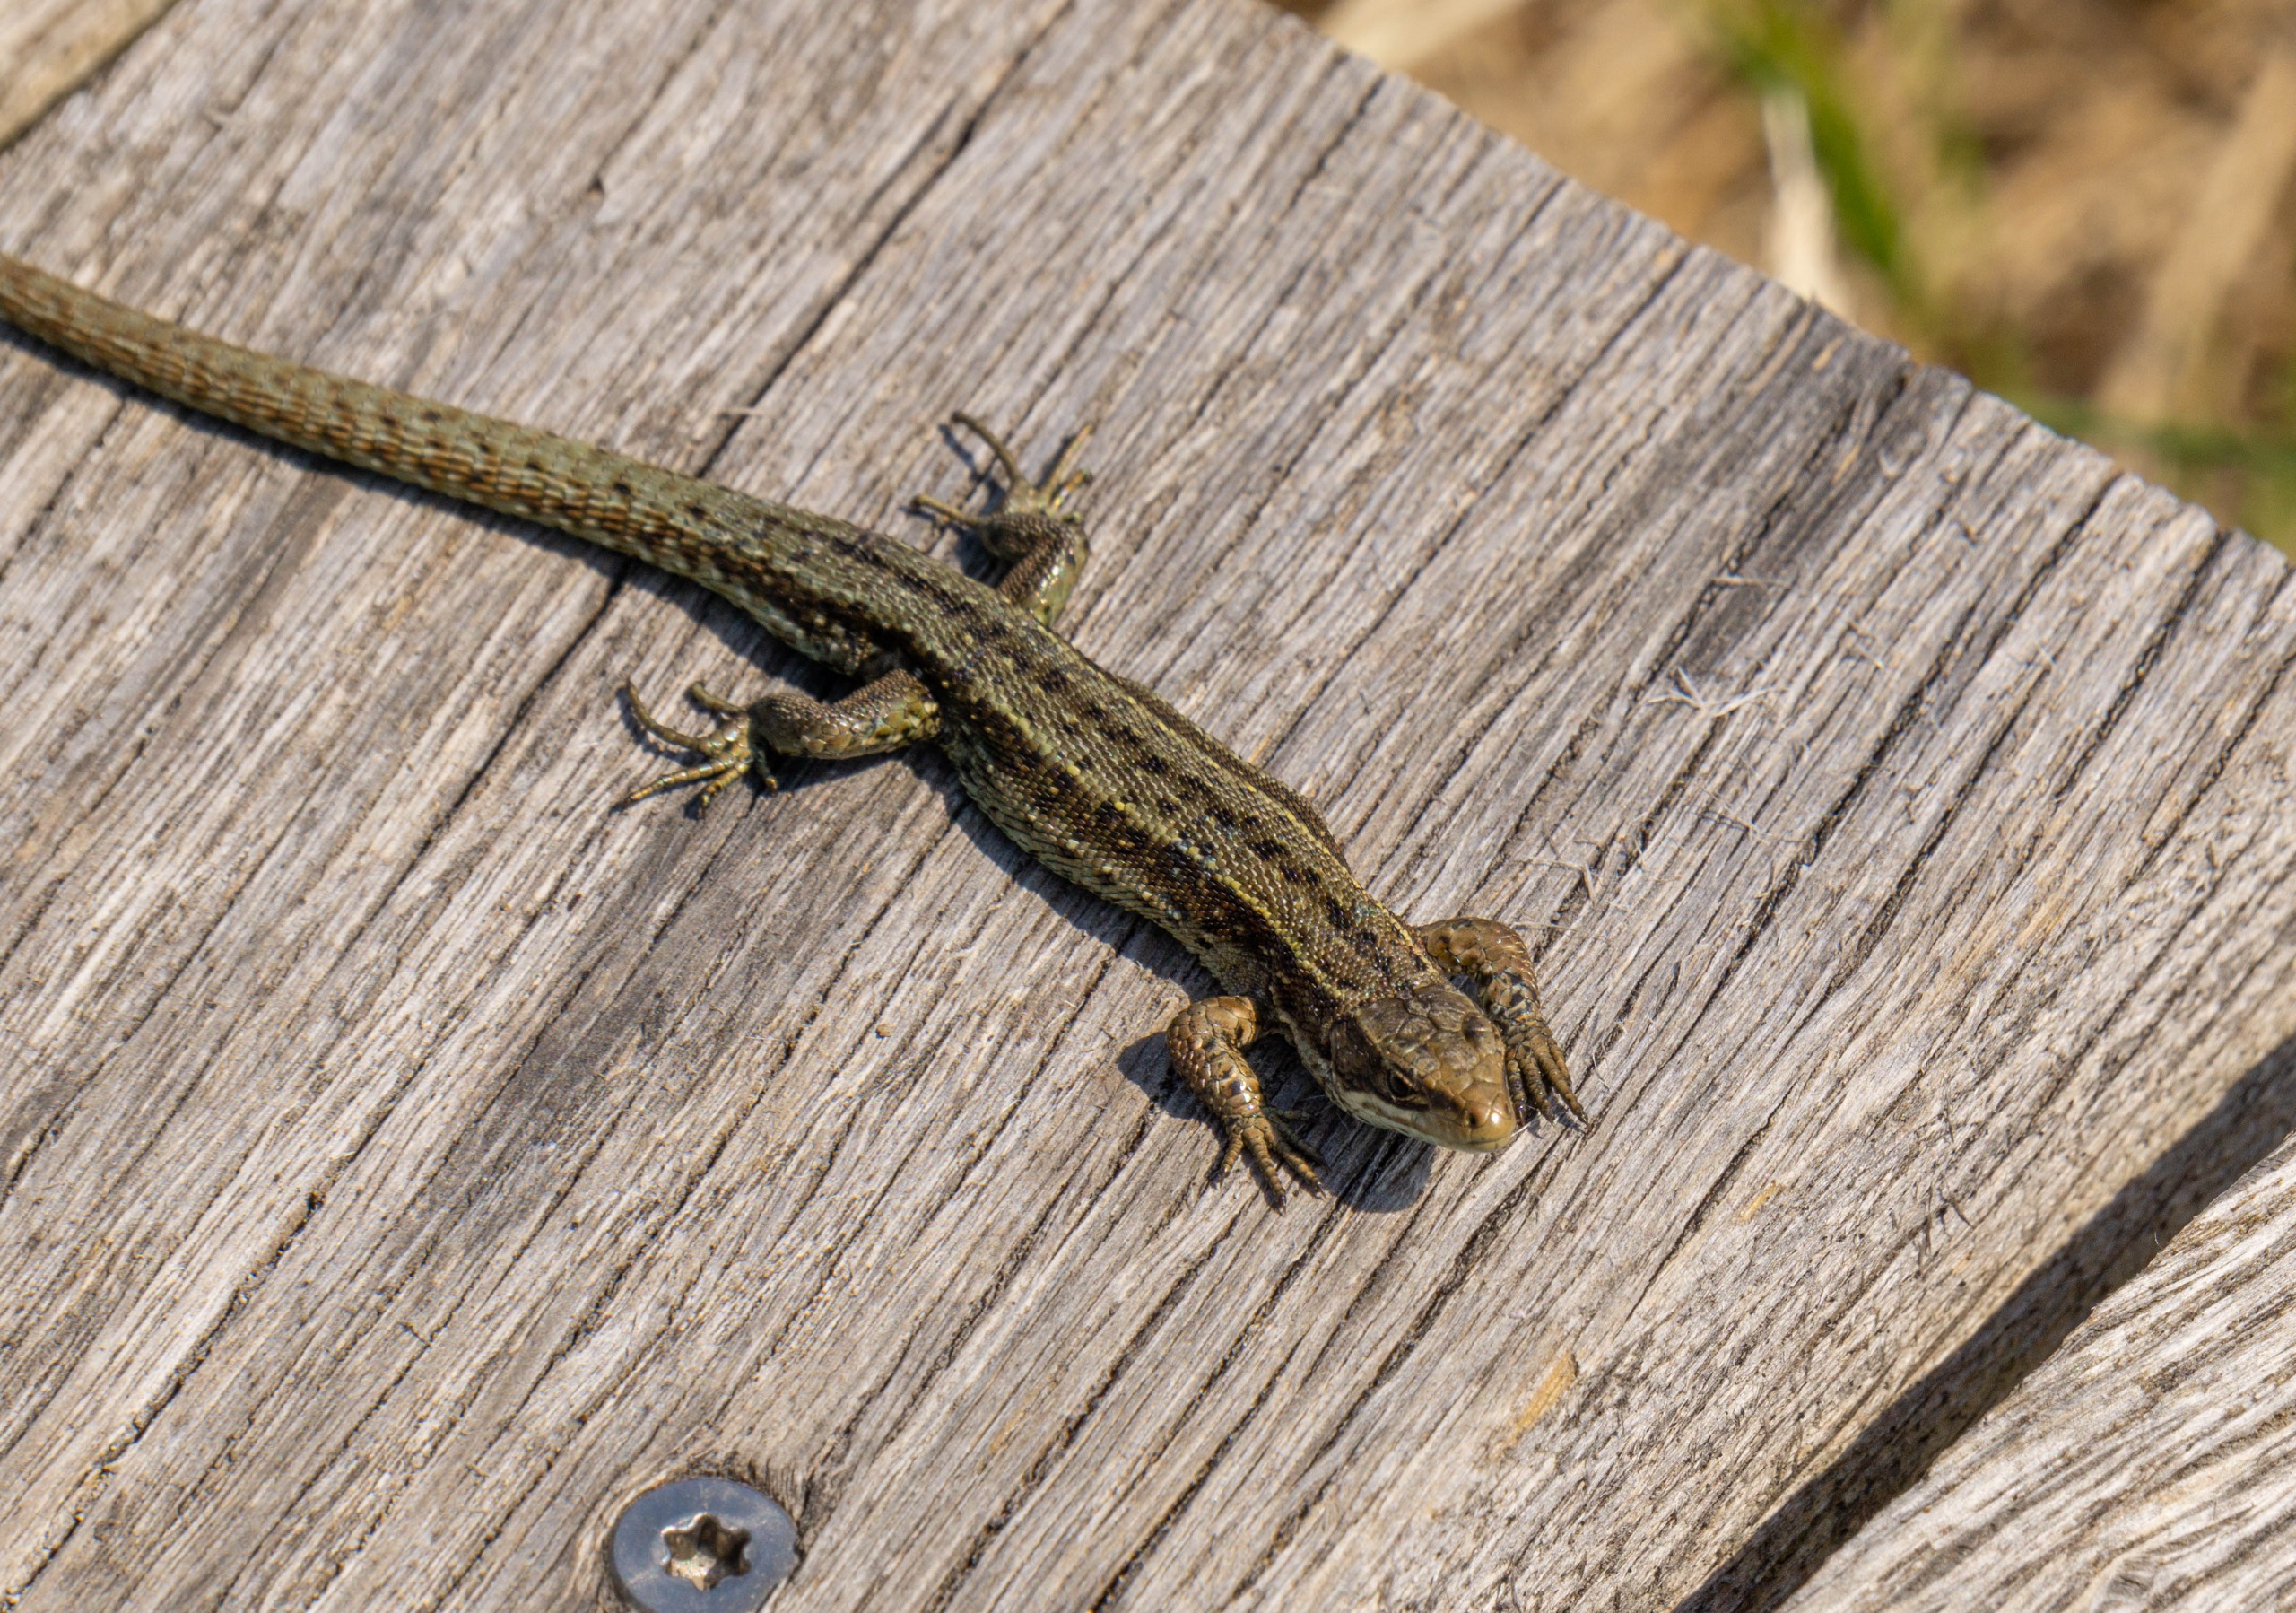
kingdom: Animalia
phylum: Chordata
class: Squamata
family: Lacertidae
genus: Zootoca
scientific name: Zootoca vivipara
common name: Skovfirben
